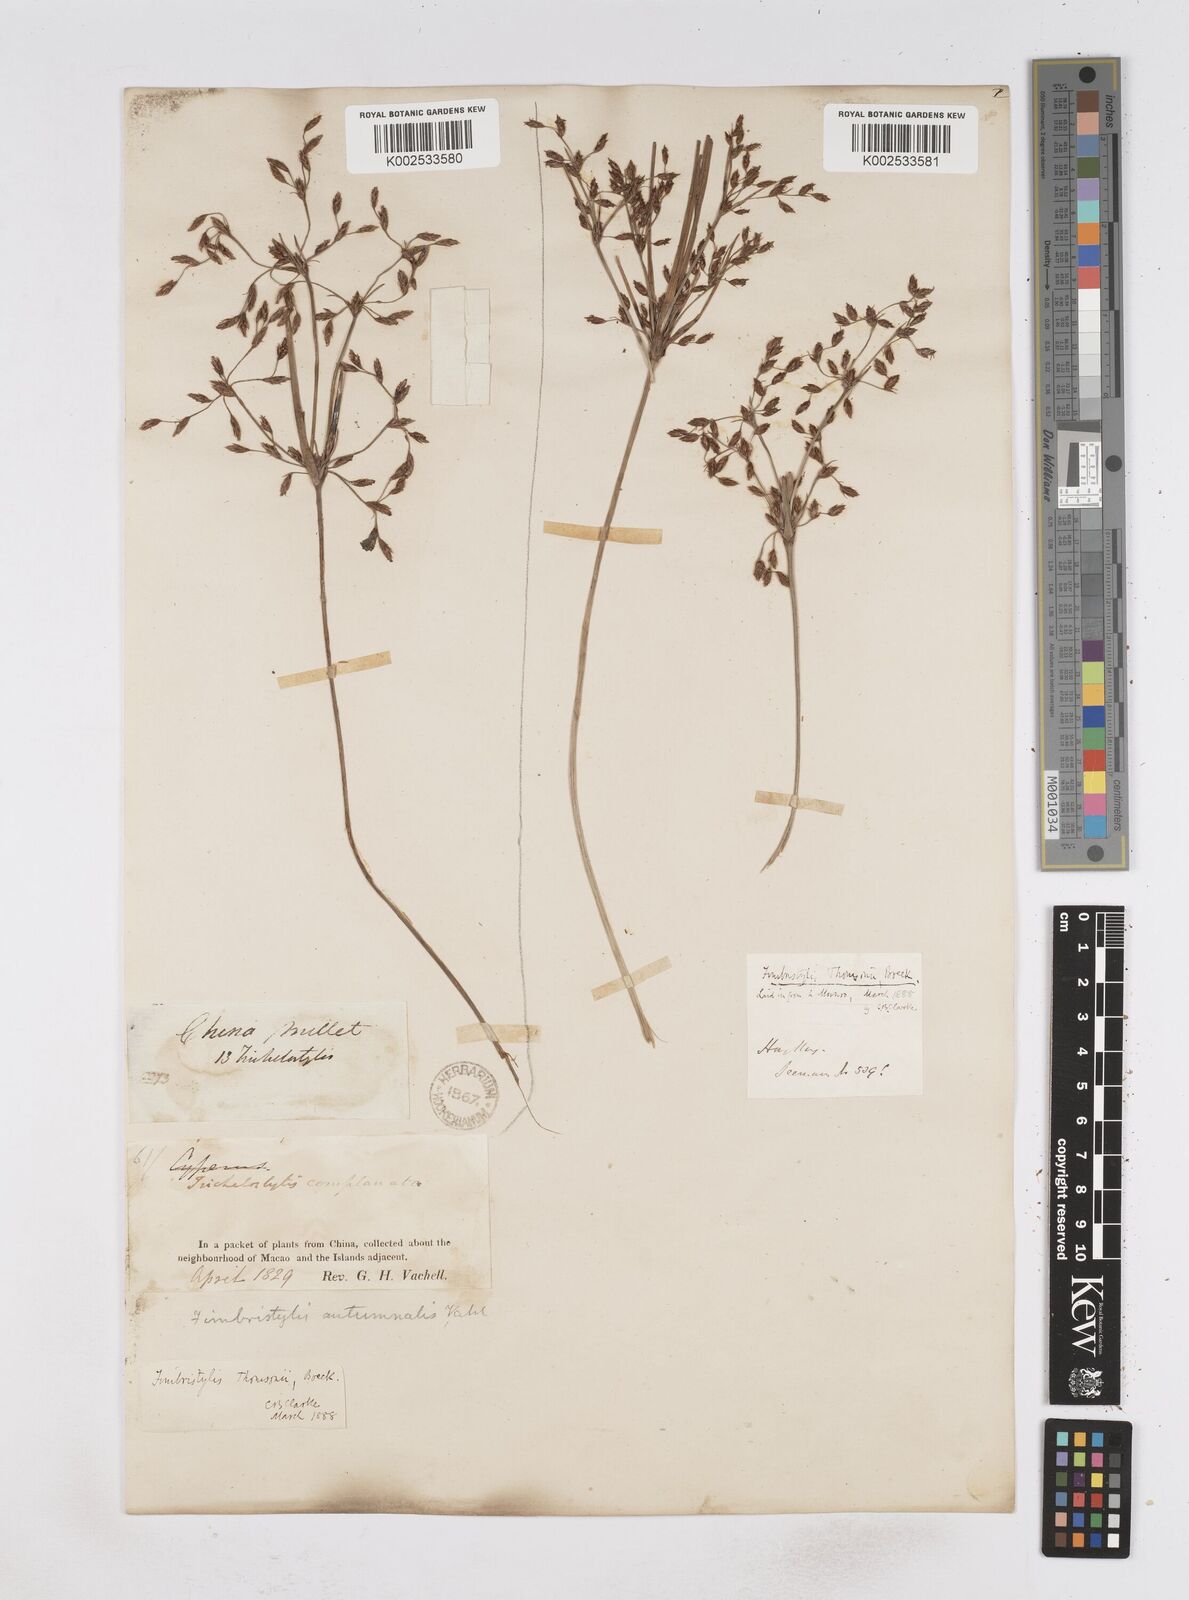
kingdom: Plantae
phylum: Tracheophyta
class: Liliopsida
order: Poales
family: Cyperaceae
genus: Fimbristylis
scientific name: Fimbristylis thomsonii
